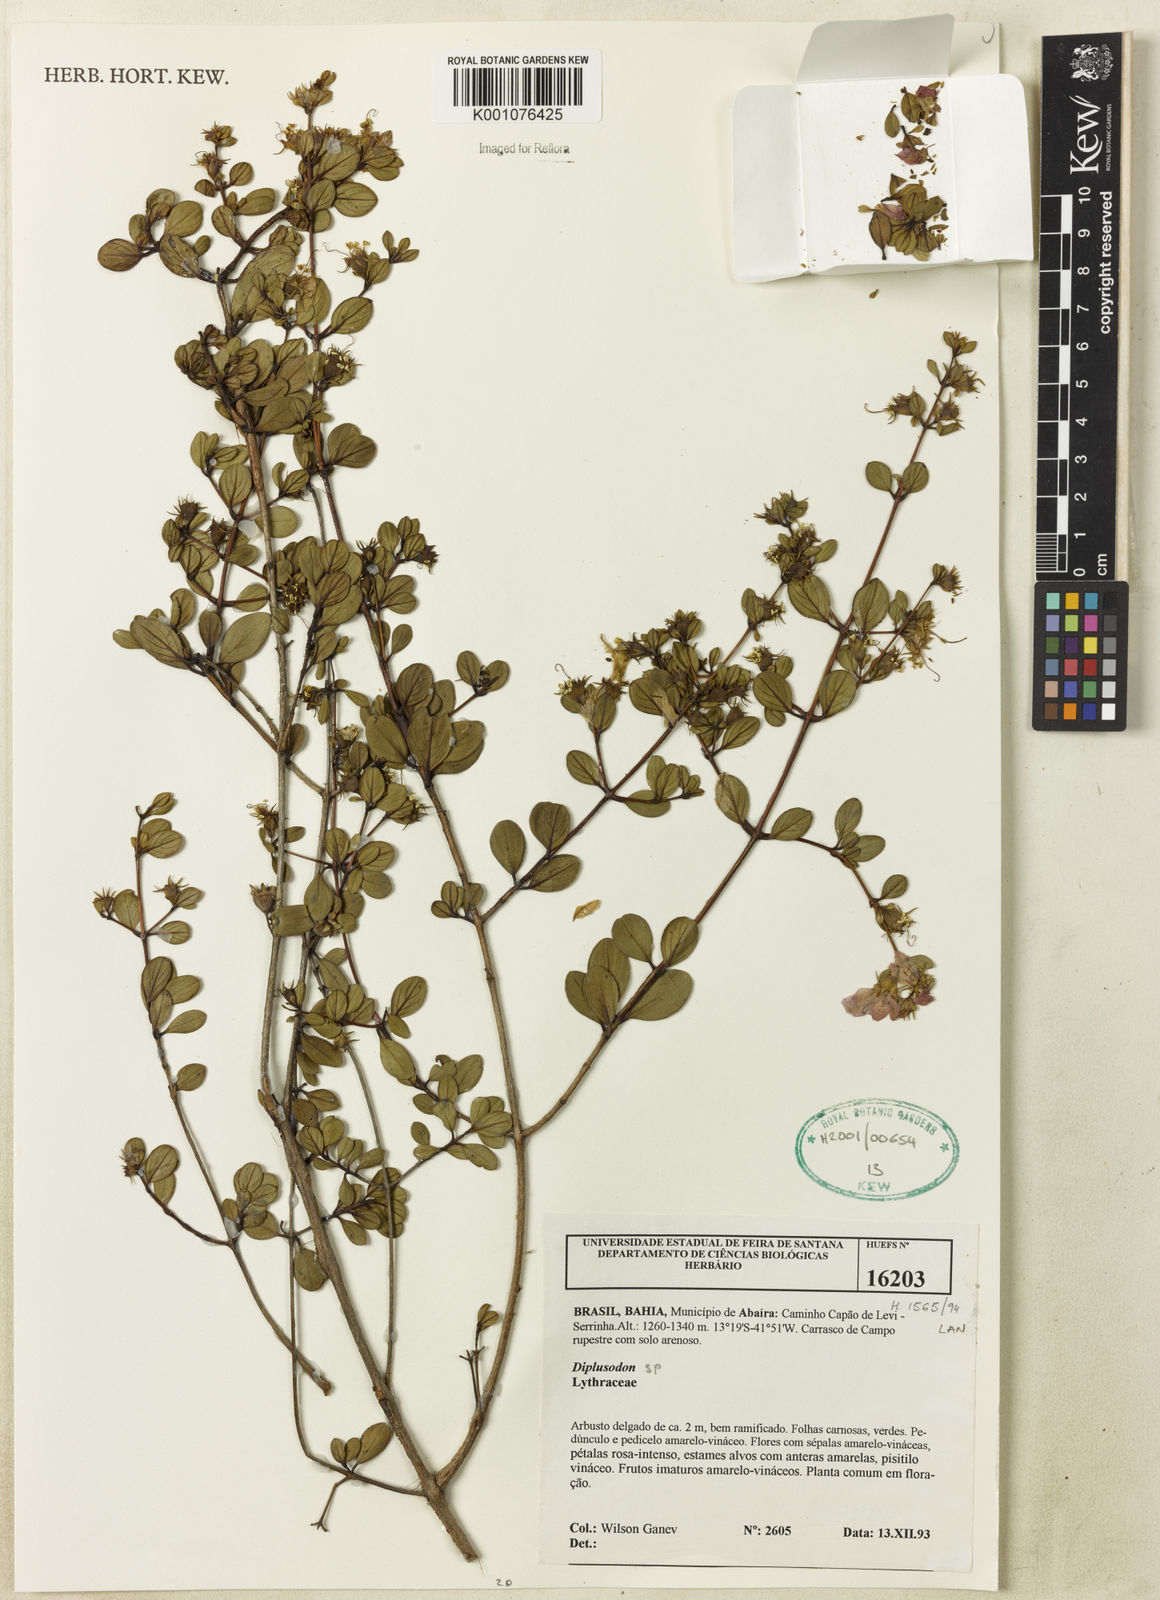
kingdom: Plantae
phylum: Tracheophyta
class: Magnoliopsida
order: Myrtales
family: Lythraceae
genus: Diplusodon
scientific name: Diplusodon
